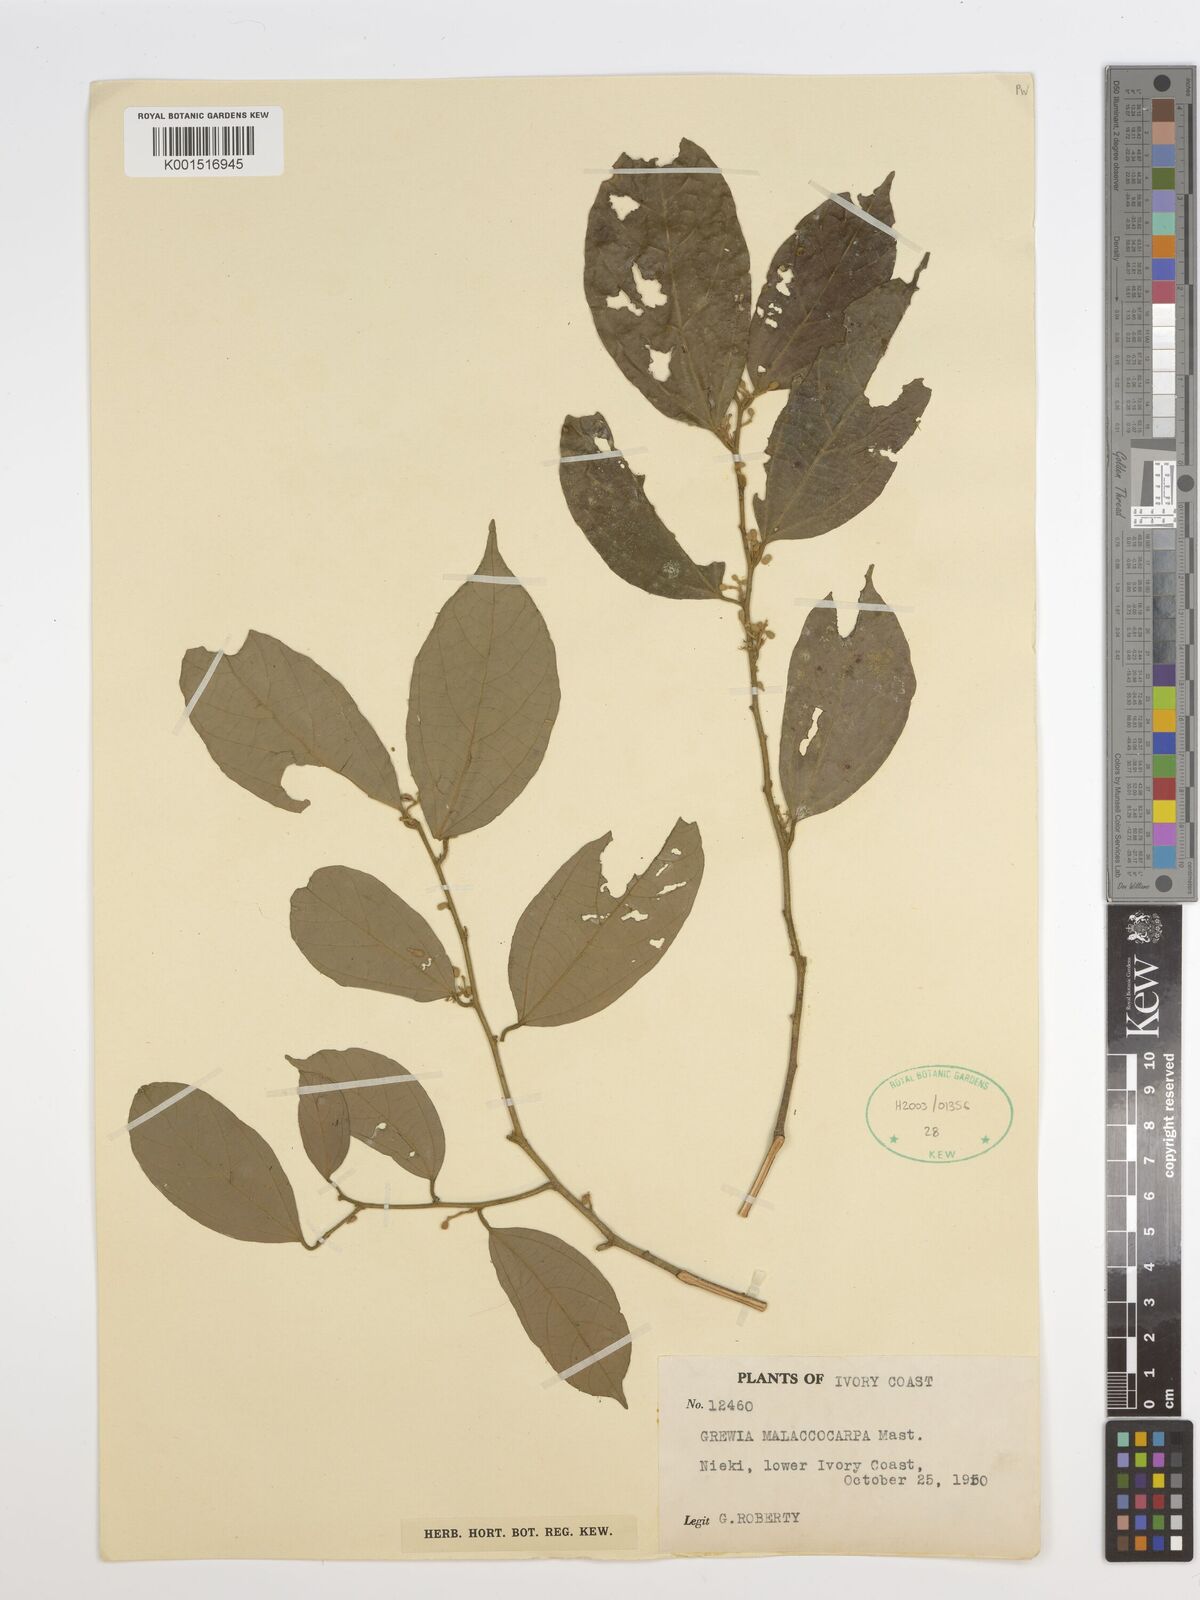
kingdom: Plantae
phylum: Tracheophyta
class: Magnoliopsida
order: Malvales
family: Malvaceae
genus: Microcos
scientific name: Microcos malacocarpa
